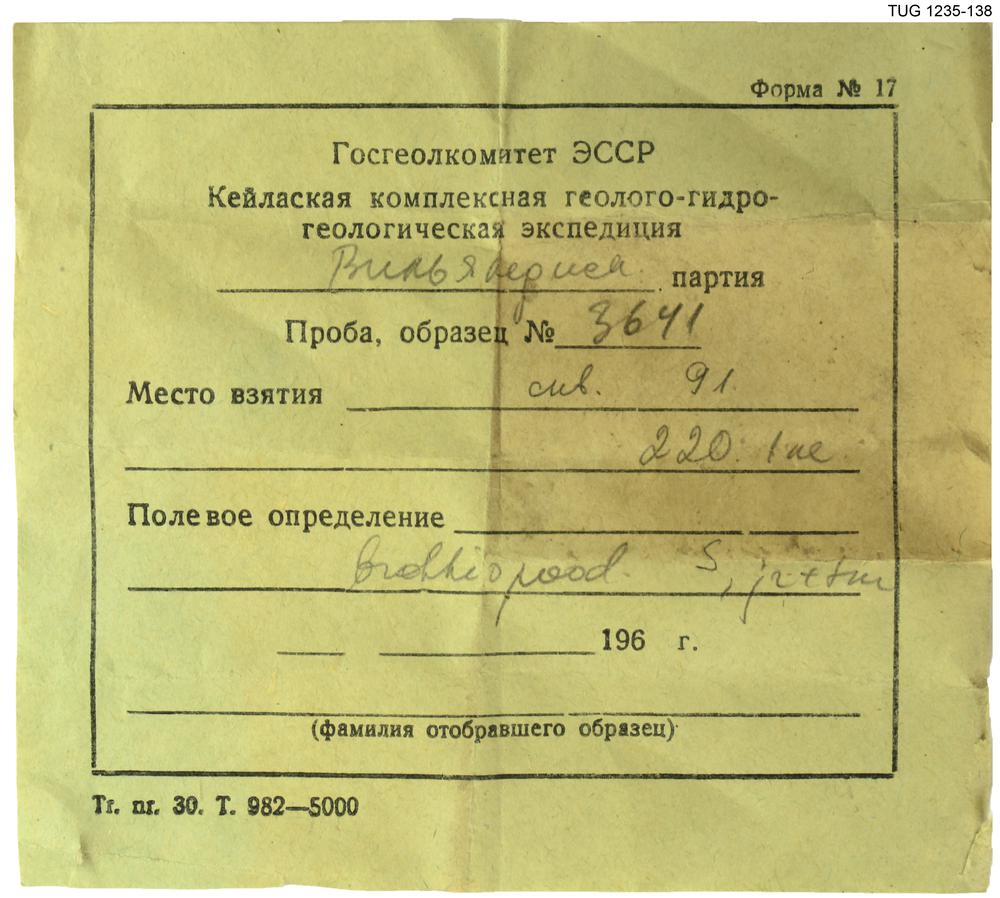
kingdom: Animalia
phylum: Bryozoa
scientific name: Bryozoa
